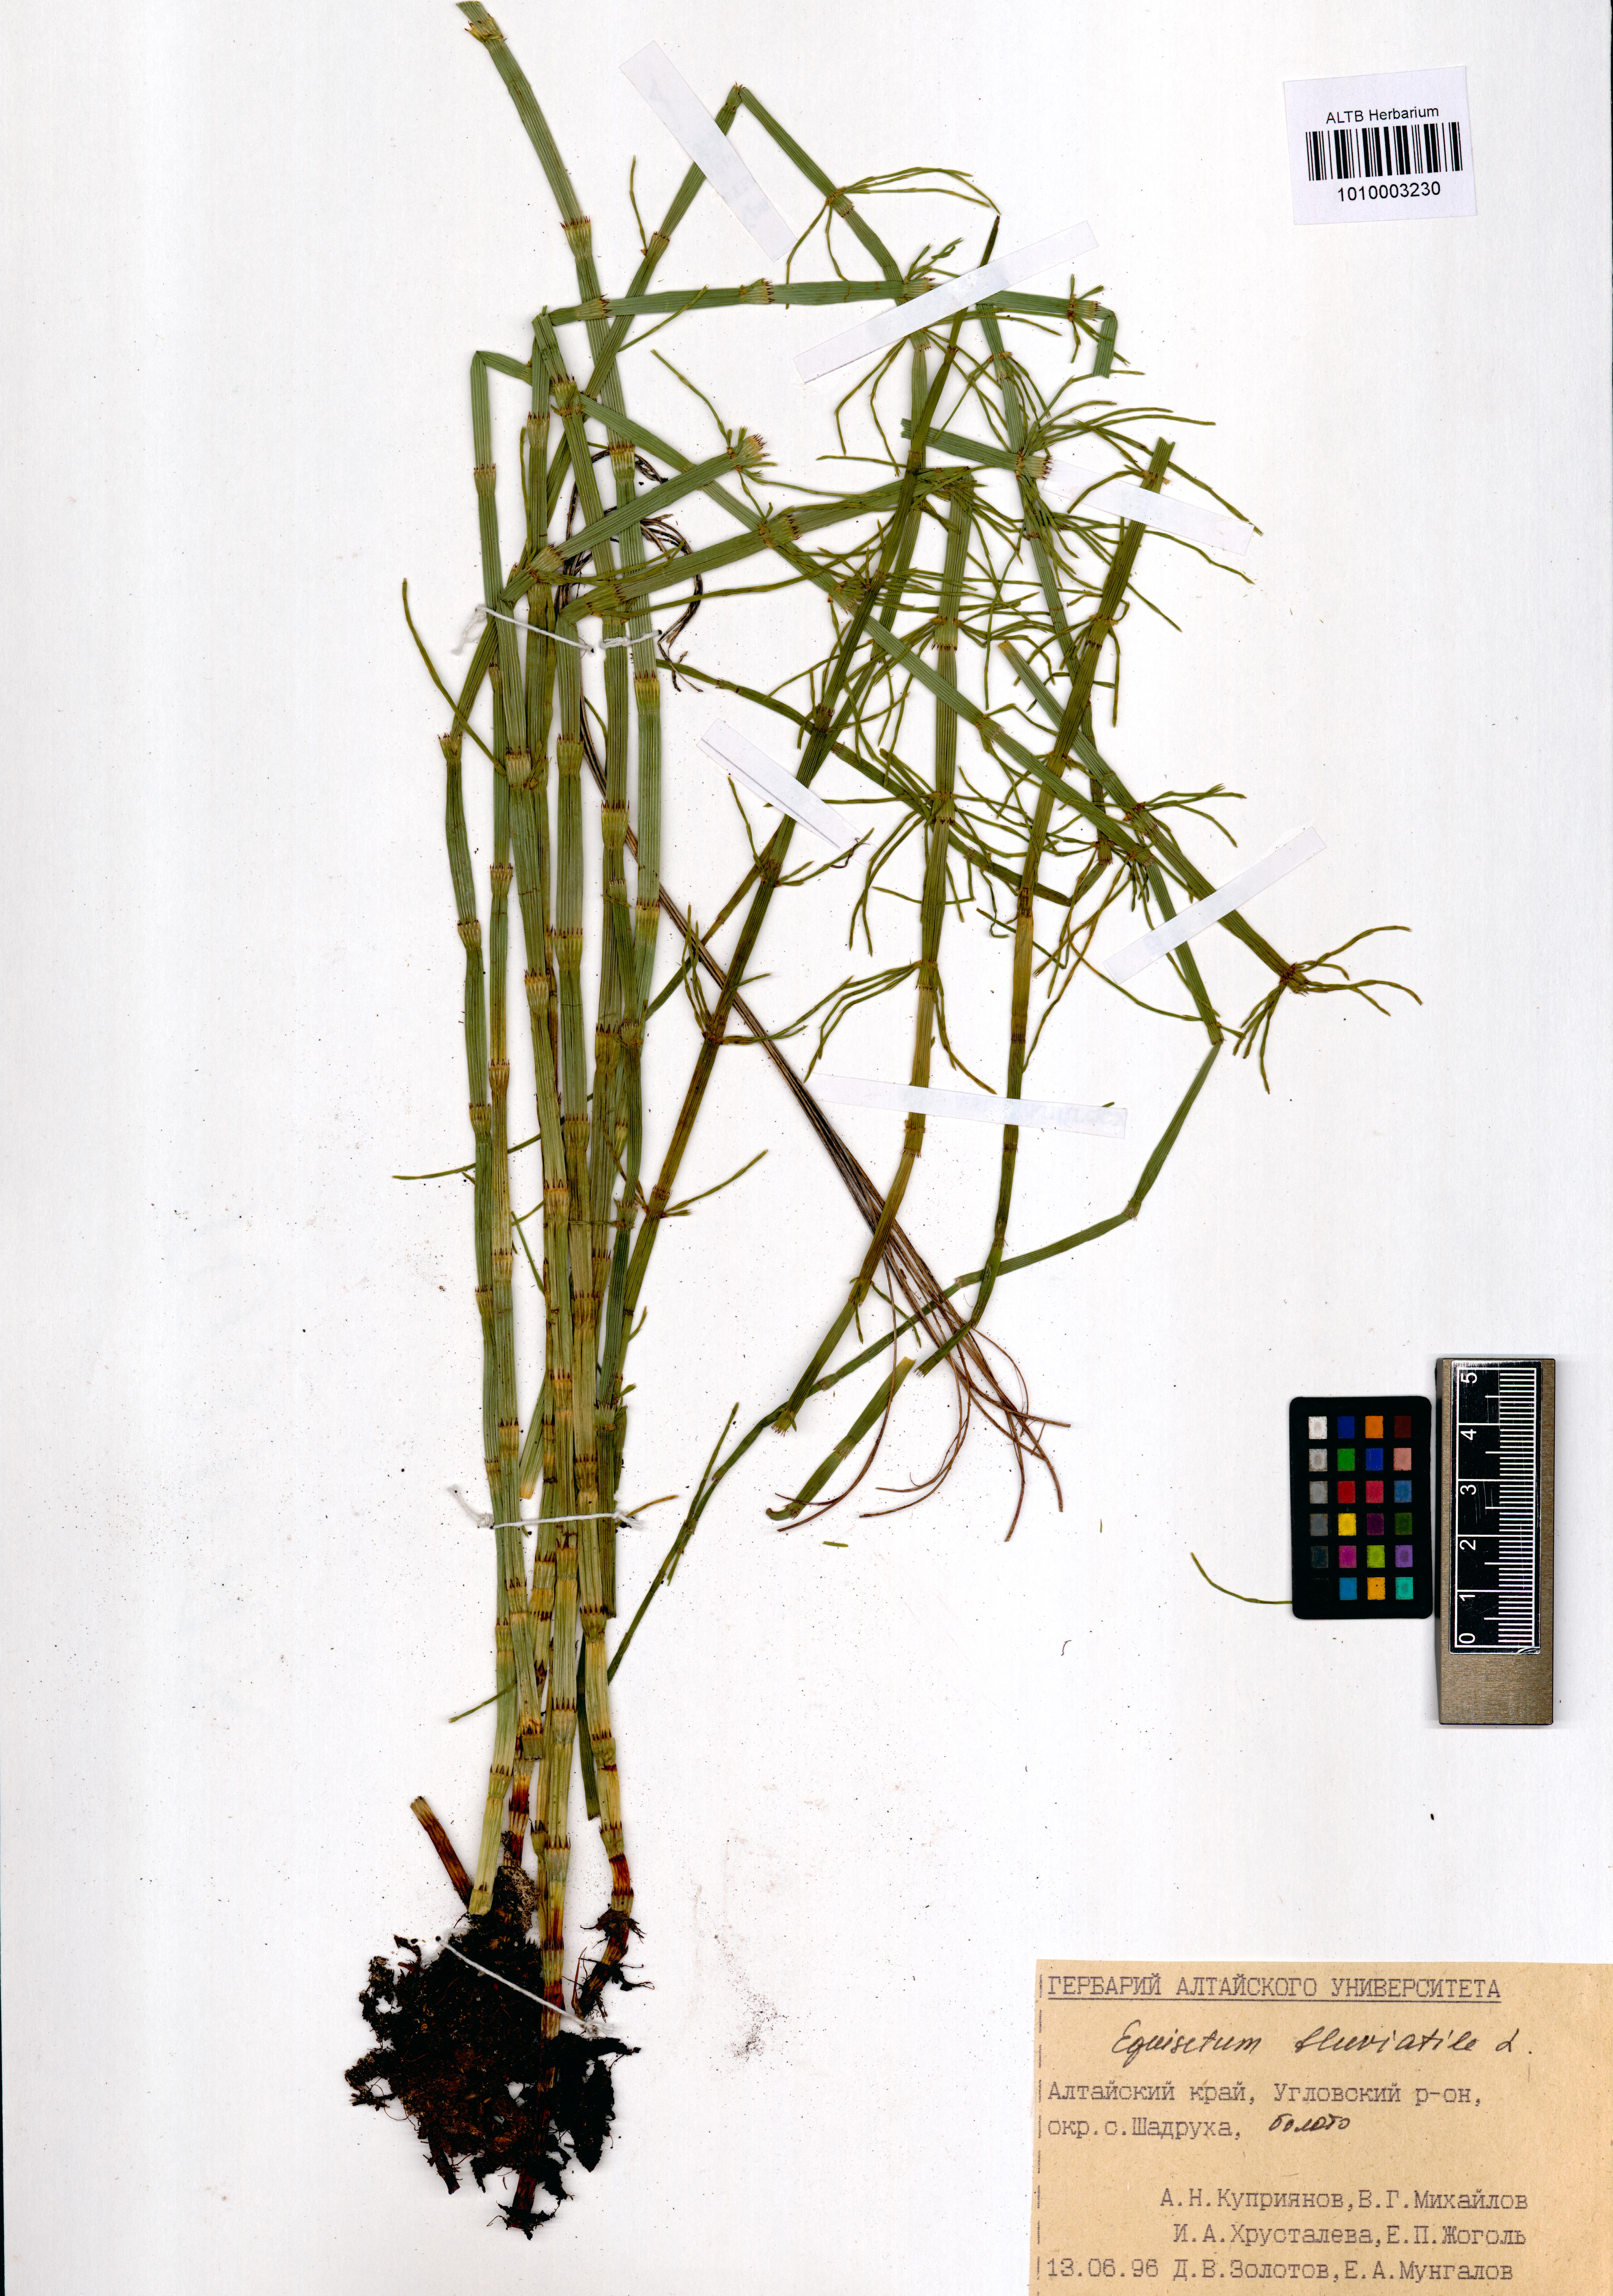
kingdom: Plantae
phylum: Tracheophyta
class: Polypodiopsida
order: Equisetales
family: Equisetaceae
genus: Equisetum
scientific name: Equisetum fluviatile
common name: Water horsetail
